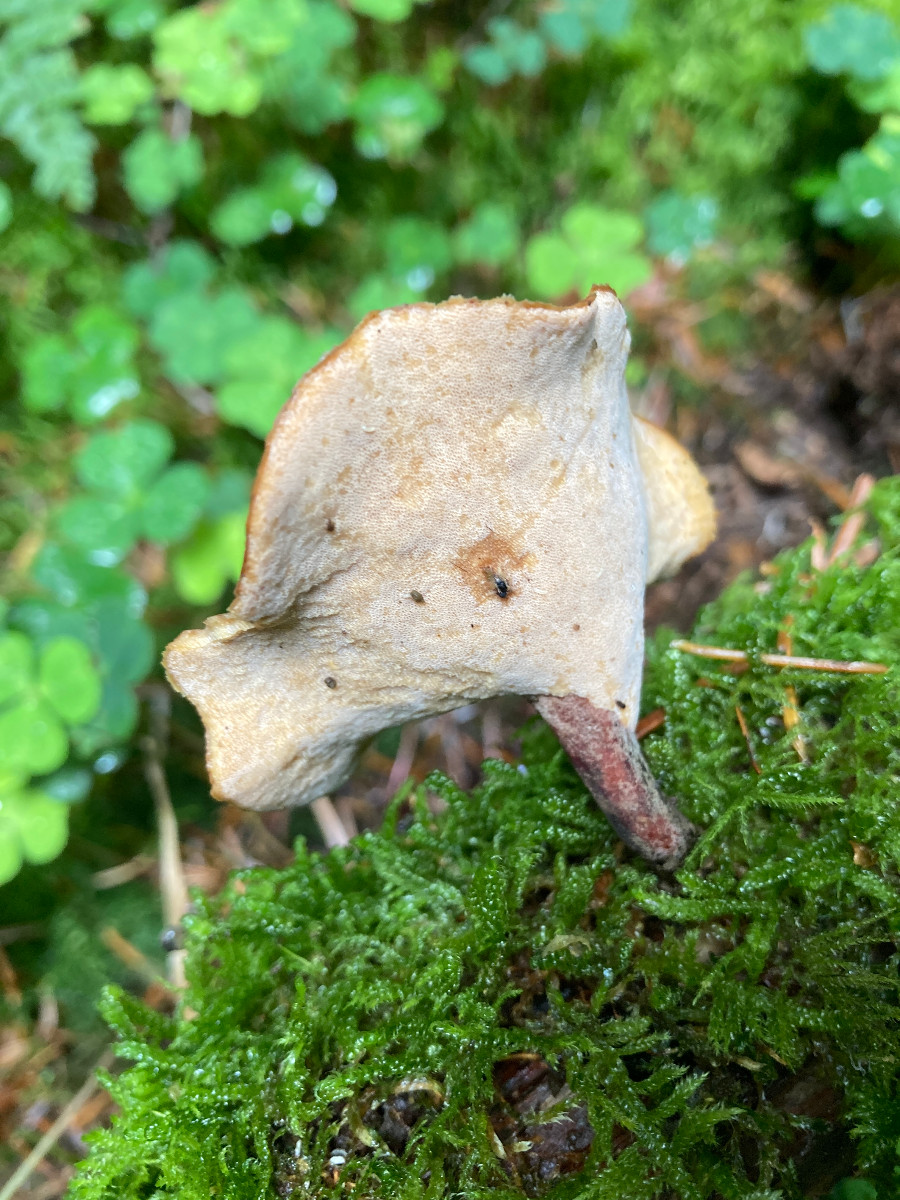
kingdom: Fungi
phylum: Basidiomycota
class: Agaricomycetes
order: Polyporales
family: Polyporaceae
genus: Picipes
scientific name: Picipes badius
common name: kastaniebrun stilkporesvamp
